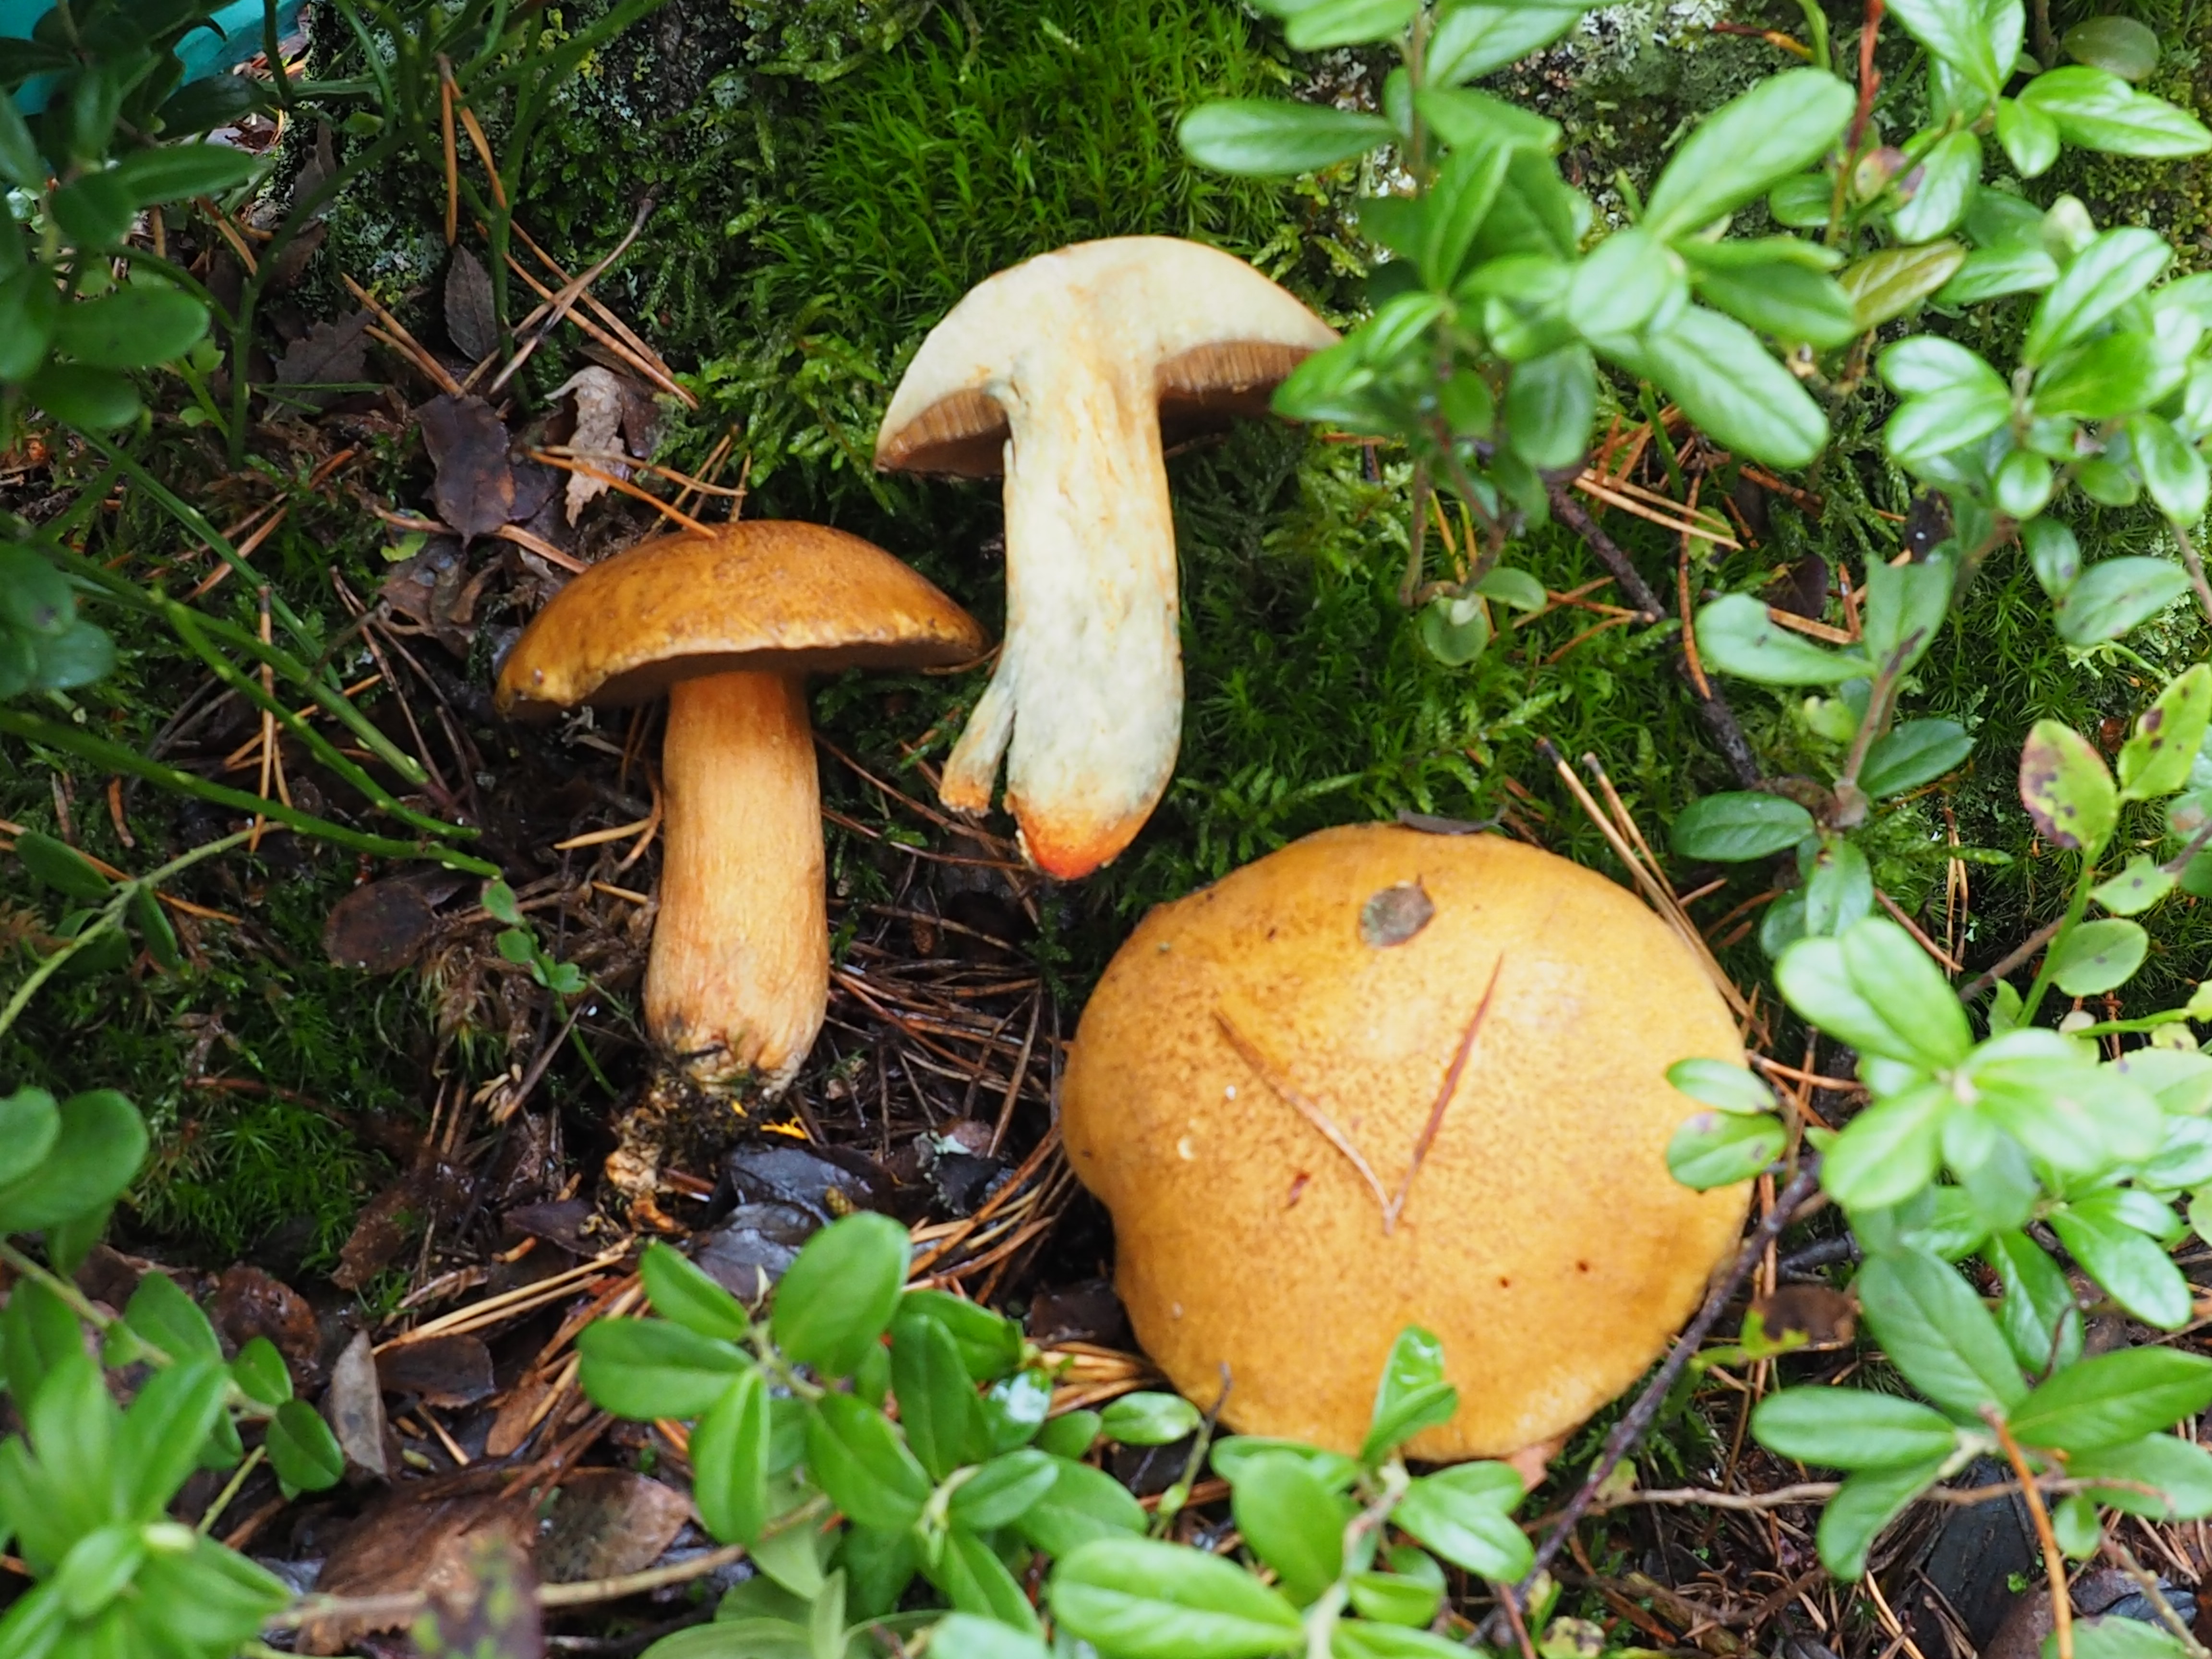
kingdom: Fungi
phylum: Basidiomycota
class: Agaricomycetes
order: Boletales
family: Suillaceae
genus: Suillus
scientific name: Suillus variegatus
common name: Velvet bolete
